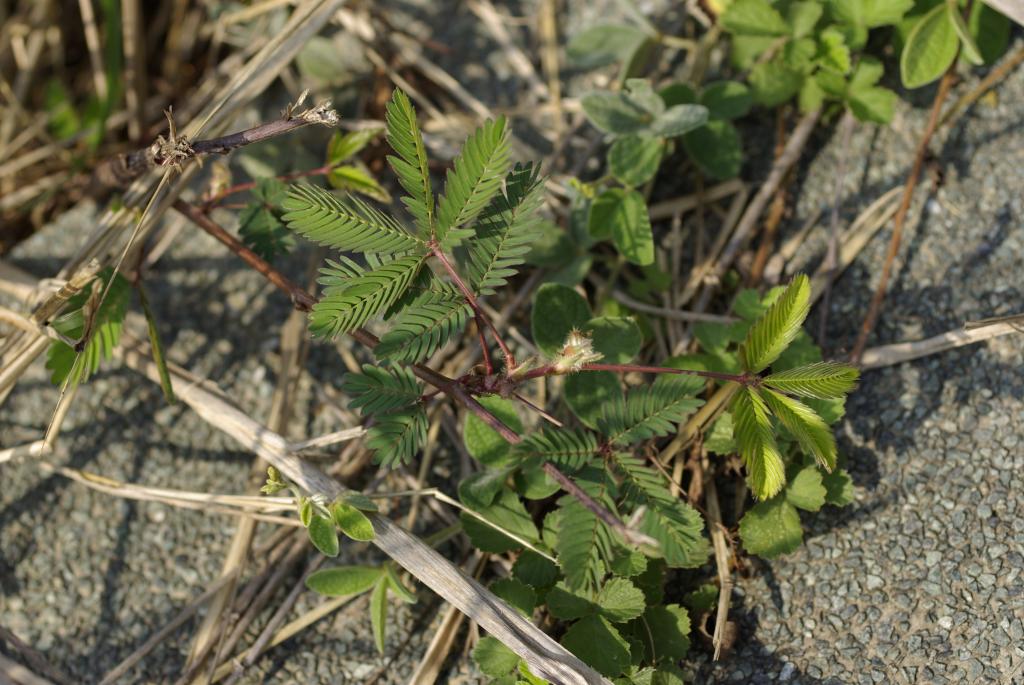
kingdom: Plantae
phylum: Tracheophyta
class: Magnoliopsida
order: Fabales
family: Fabaceae
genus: Mimosa
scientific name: Mimosa pudica
